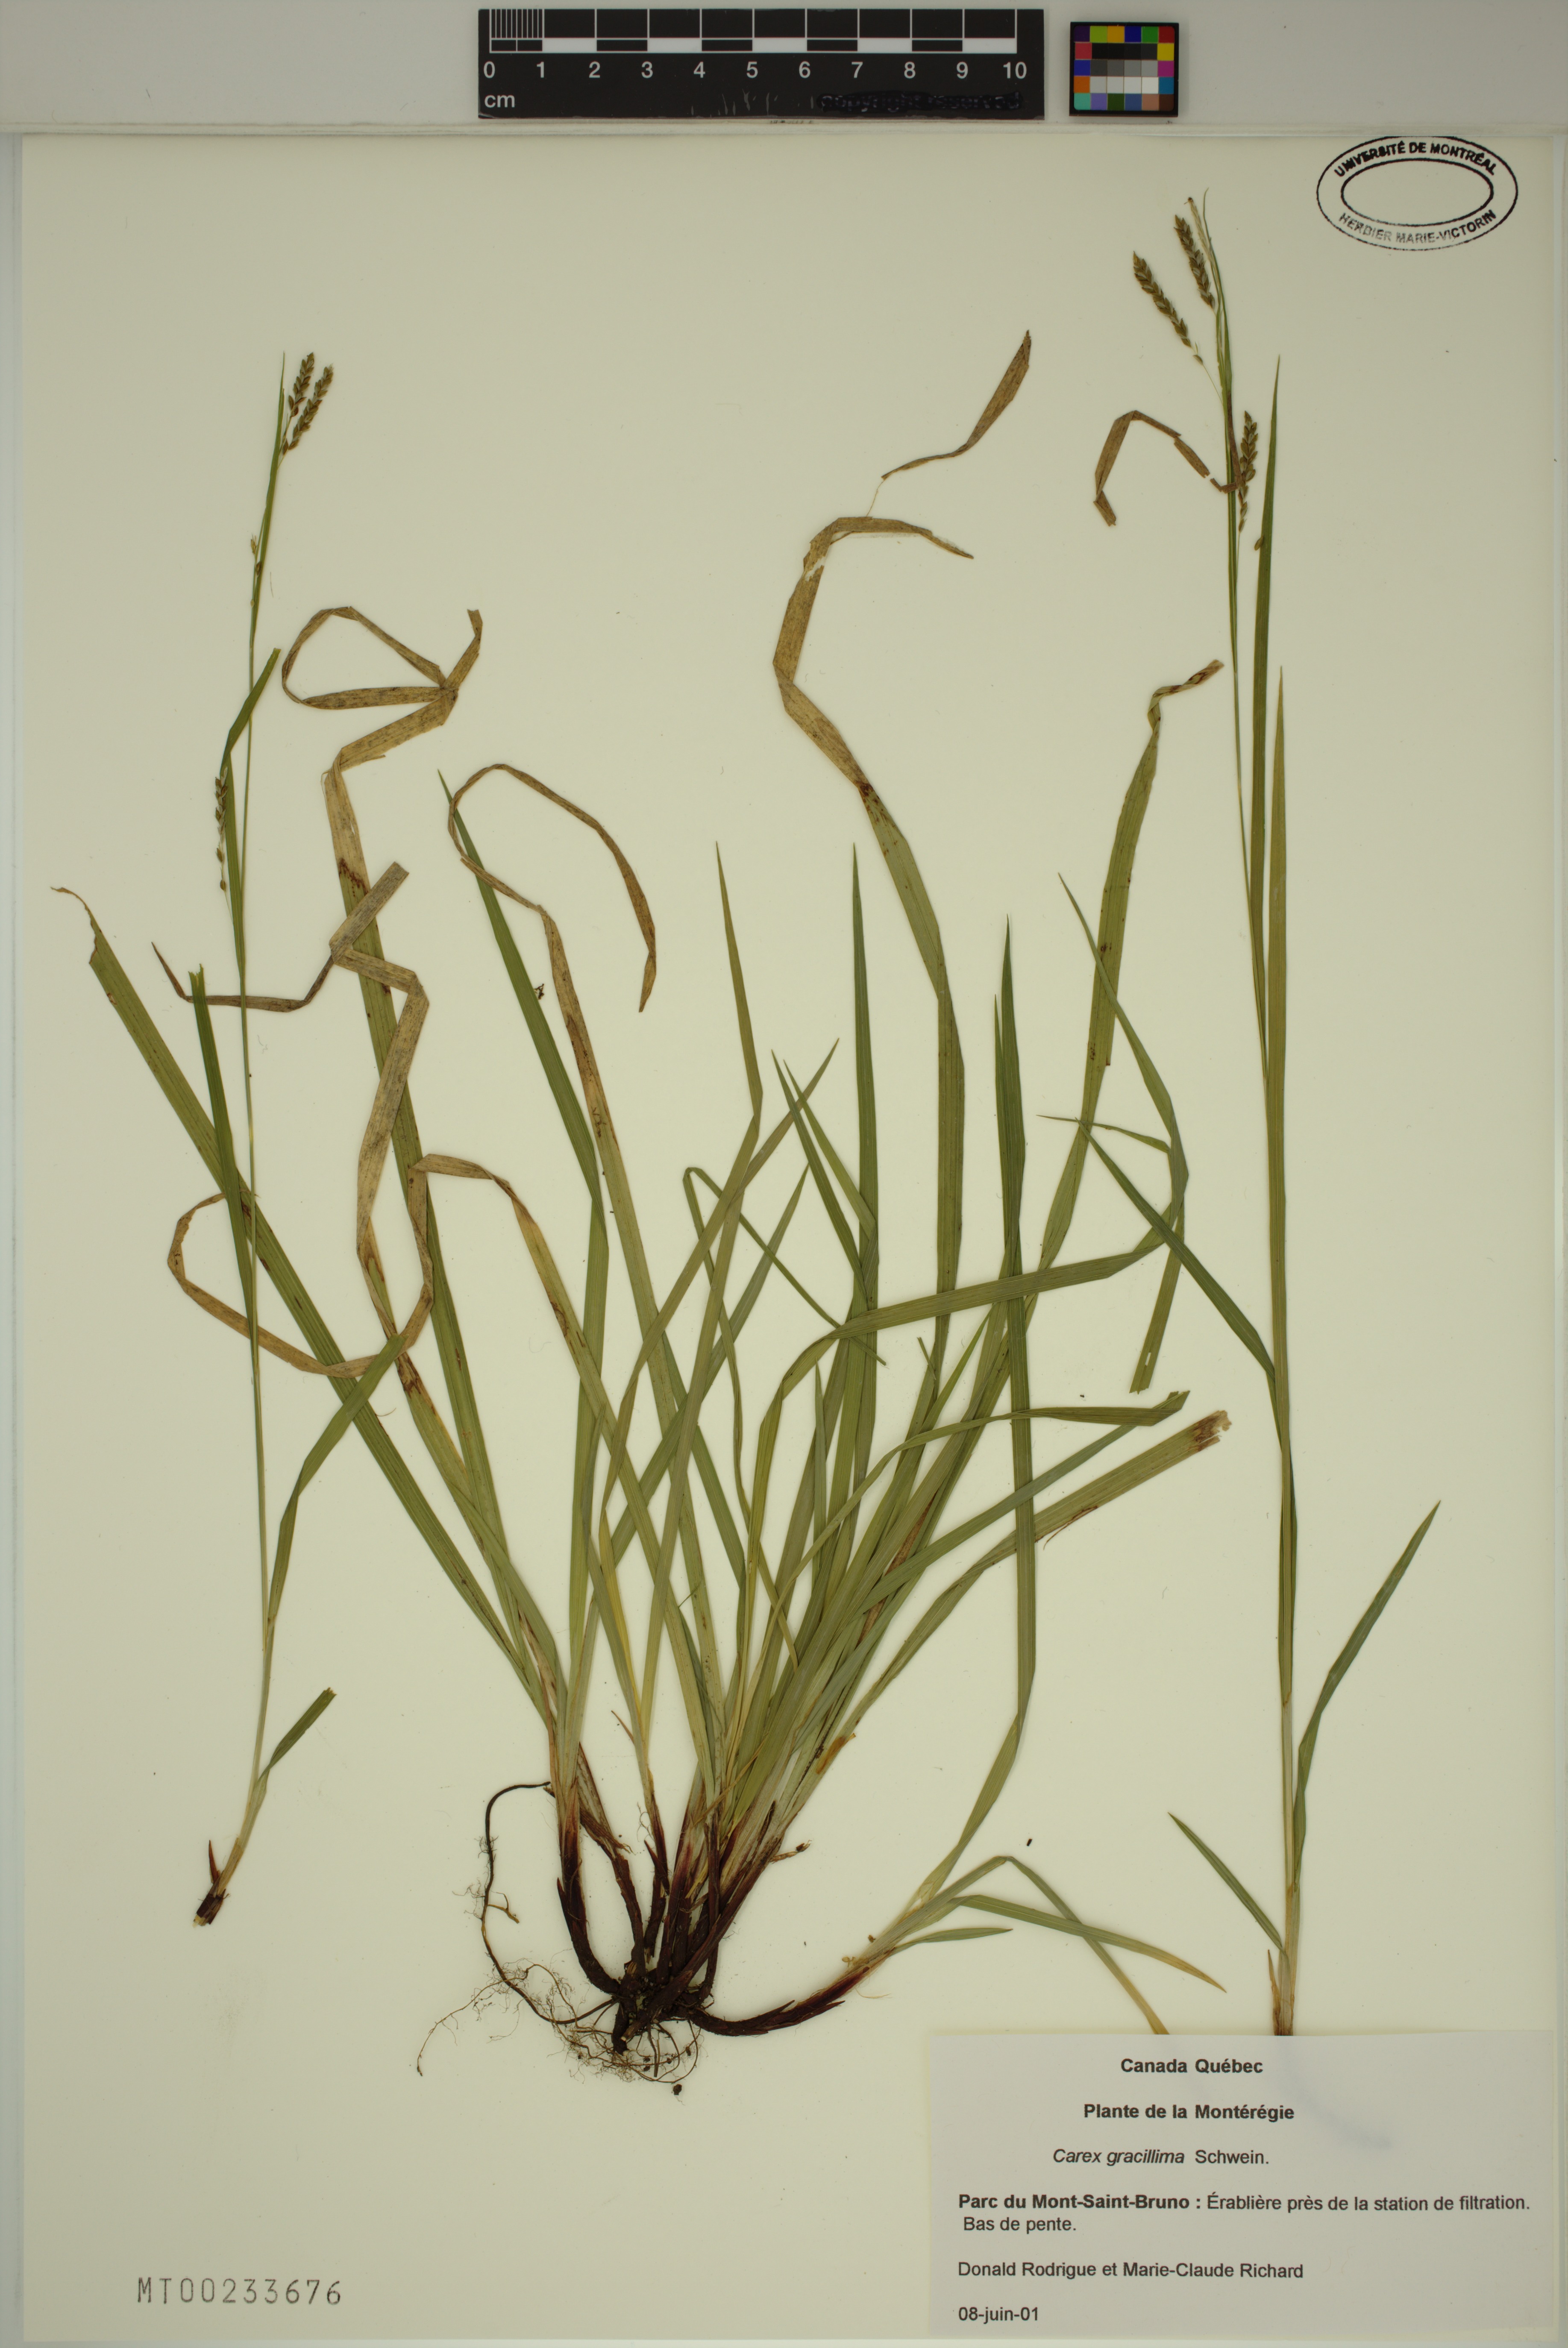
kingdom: Plantae
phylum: Tracheophyta
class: Liliopsida
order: Poales
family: Cyperaceae
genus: Carex
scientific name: Carex gracillima
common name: Graceful sedge
